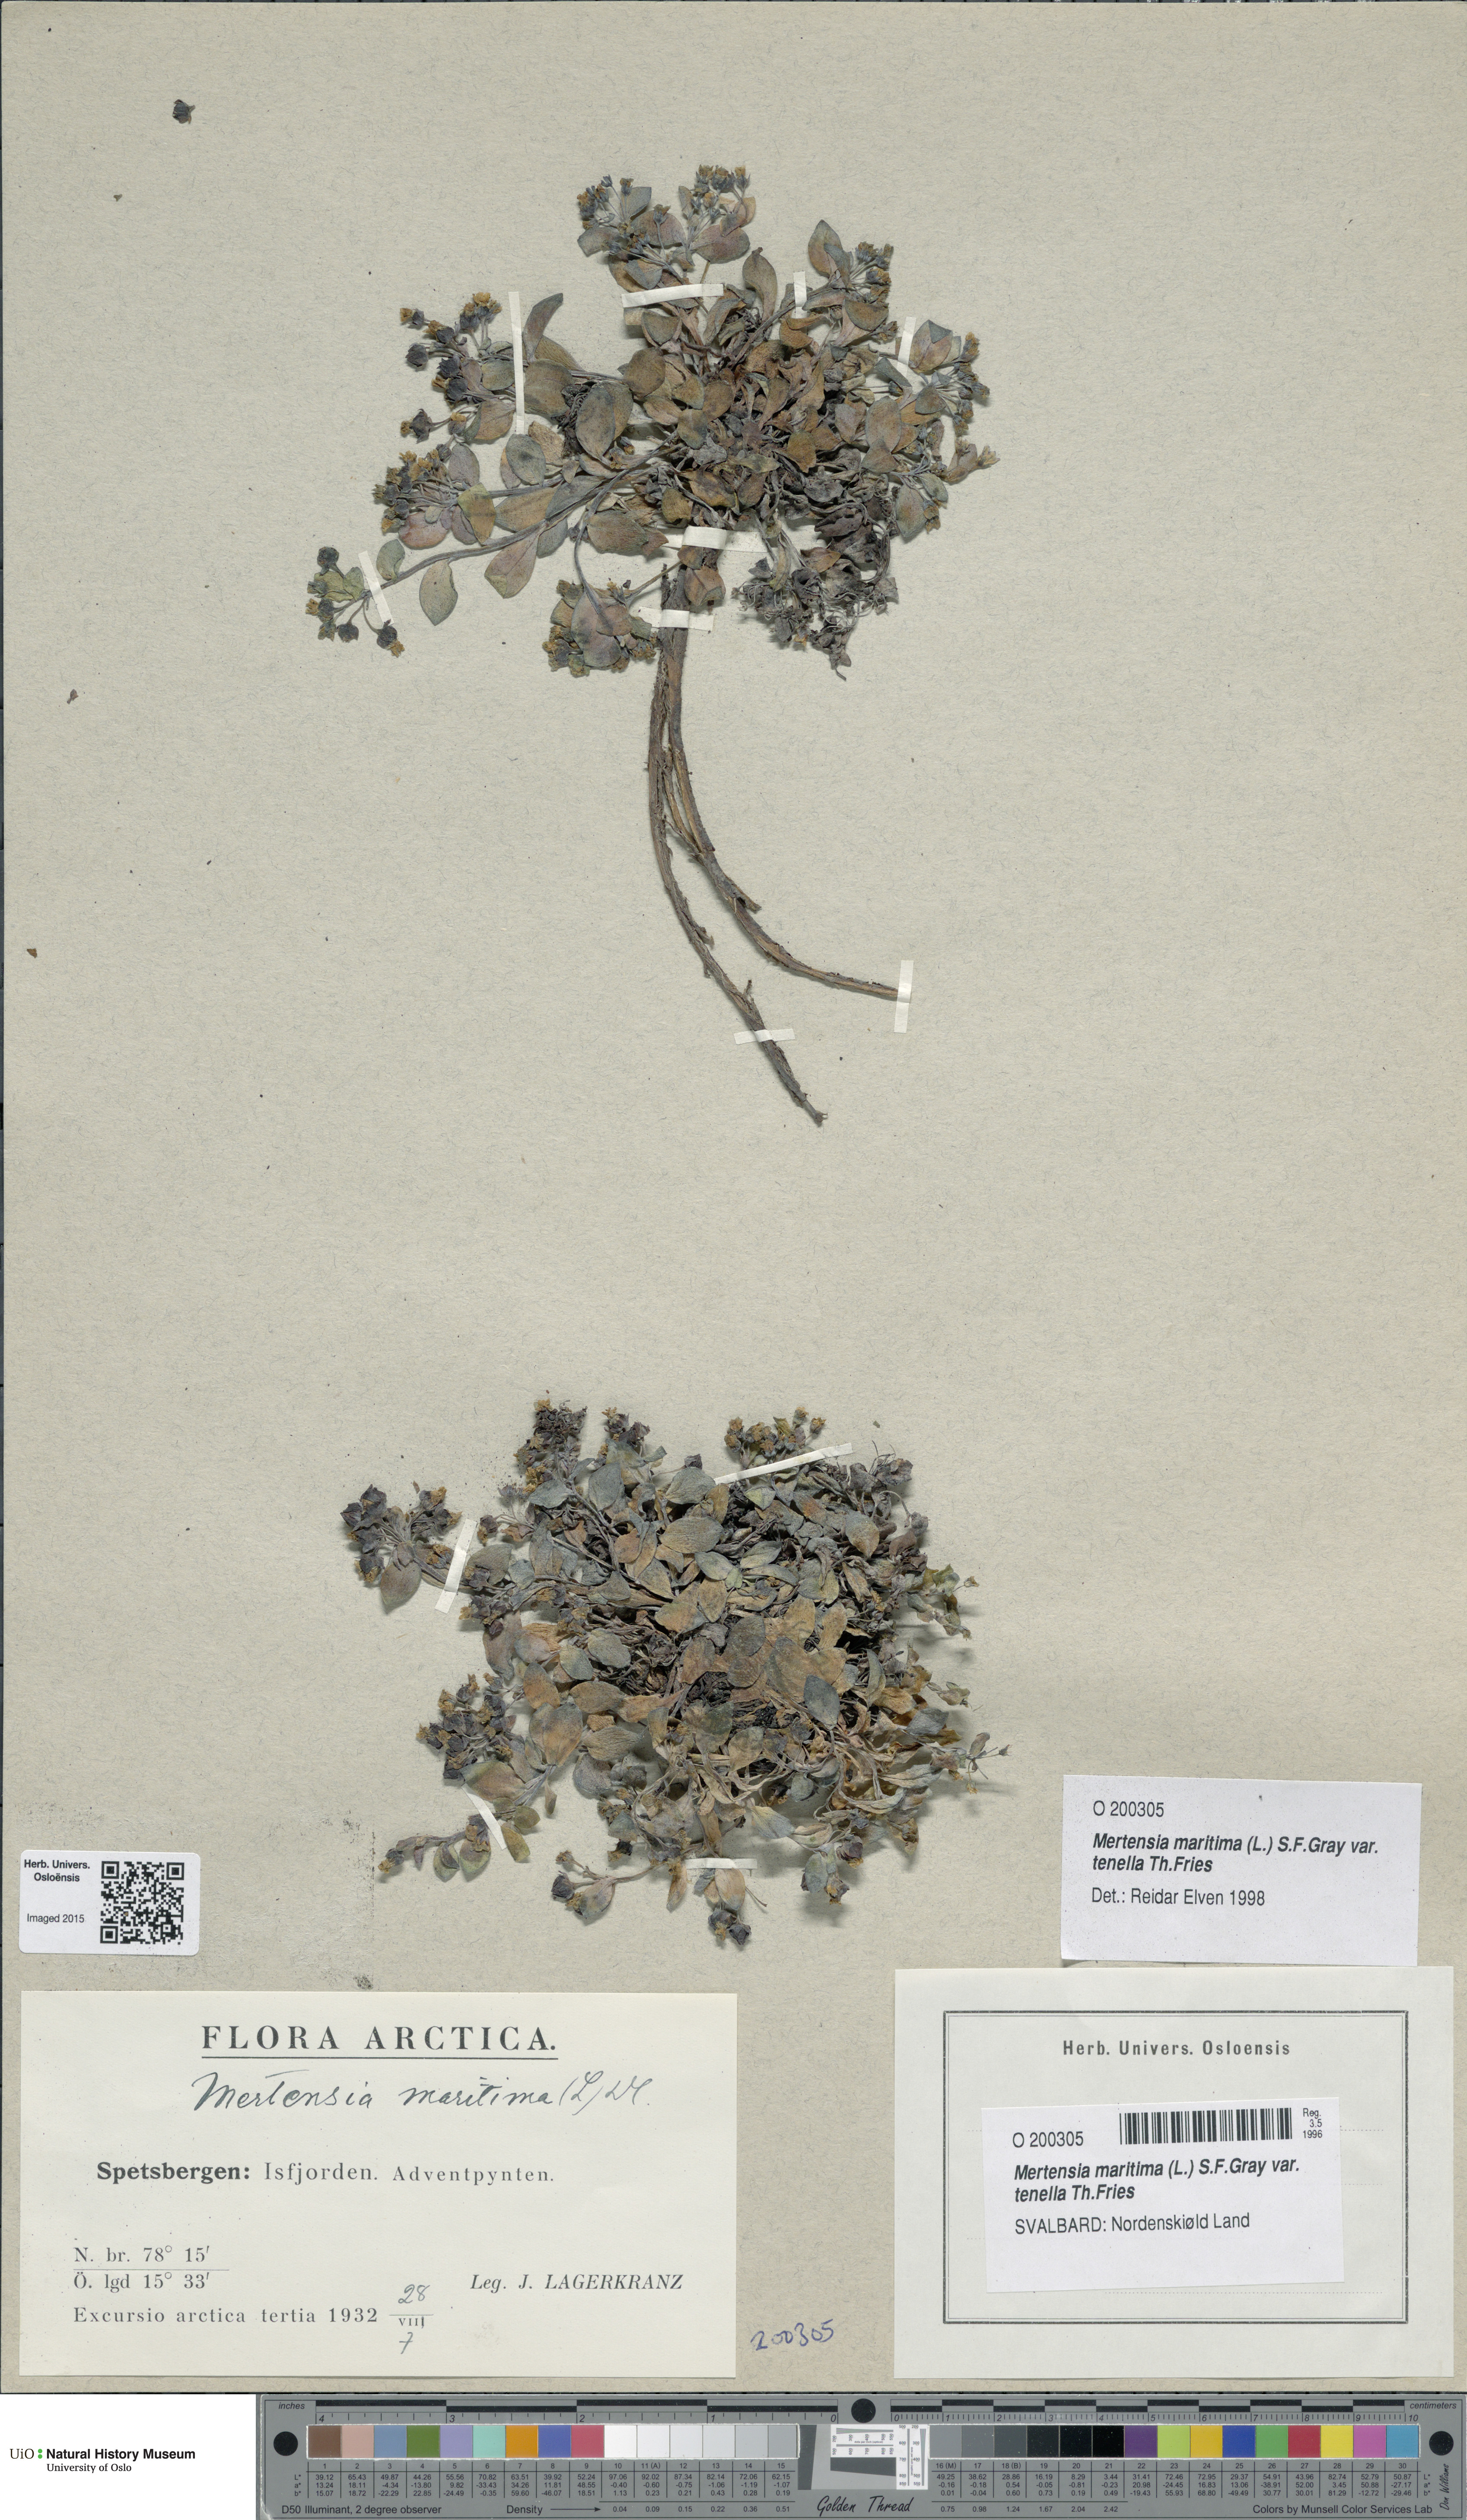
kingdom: Plantae
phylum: Tracheophyta
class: Magnoliopsida
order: Boraginales
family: Boraginaceae
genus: Mertensia
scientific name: Mertensia maritima
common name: Oysterplant
